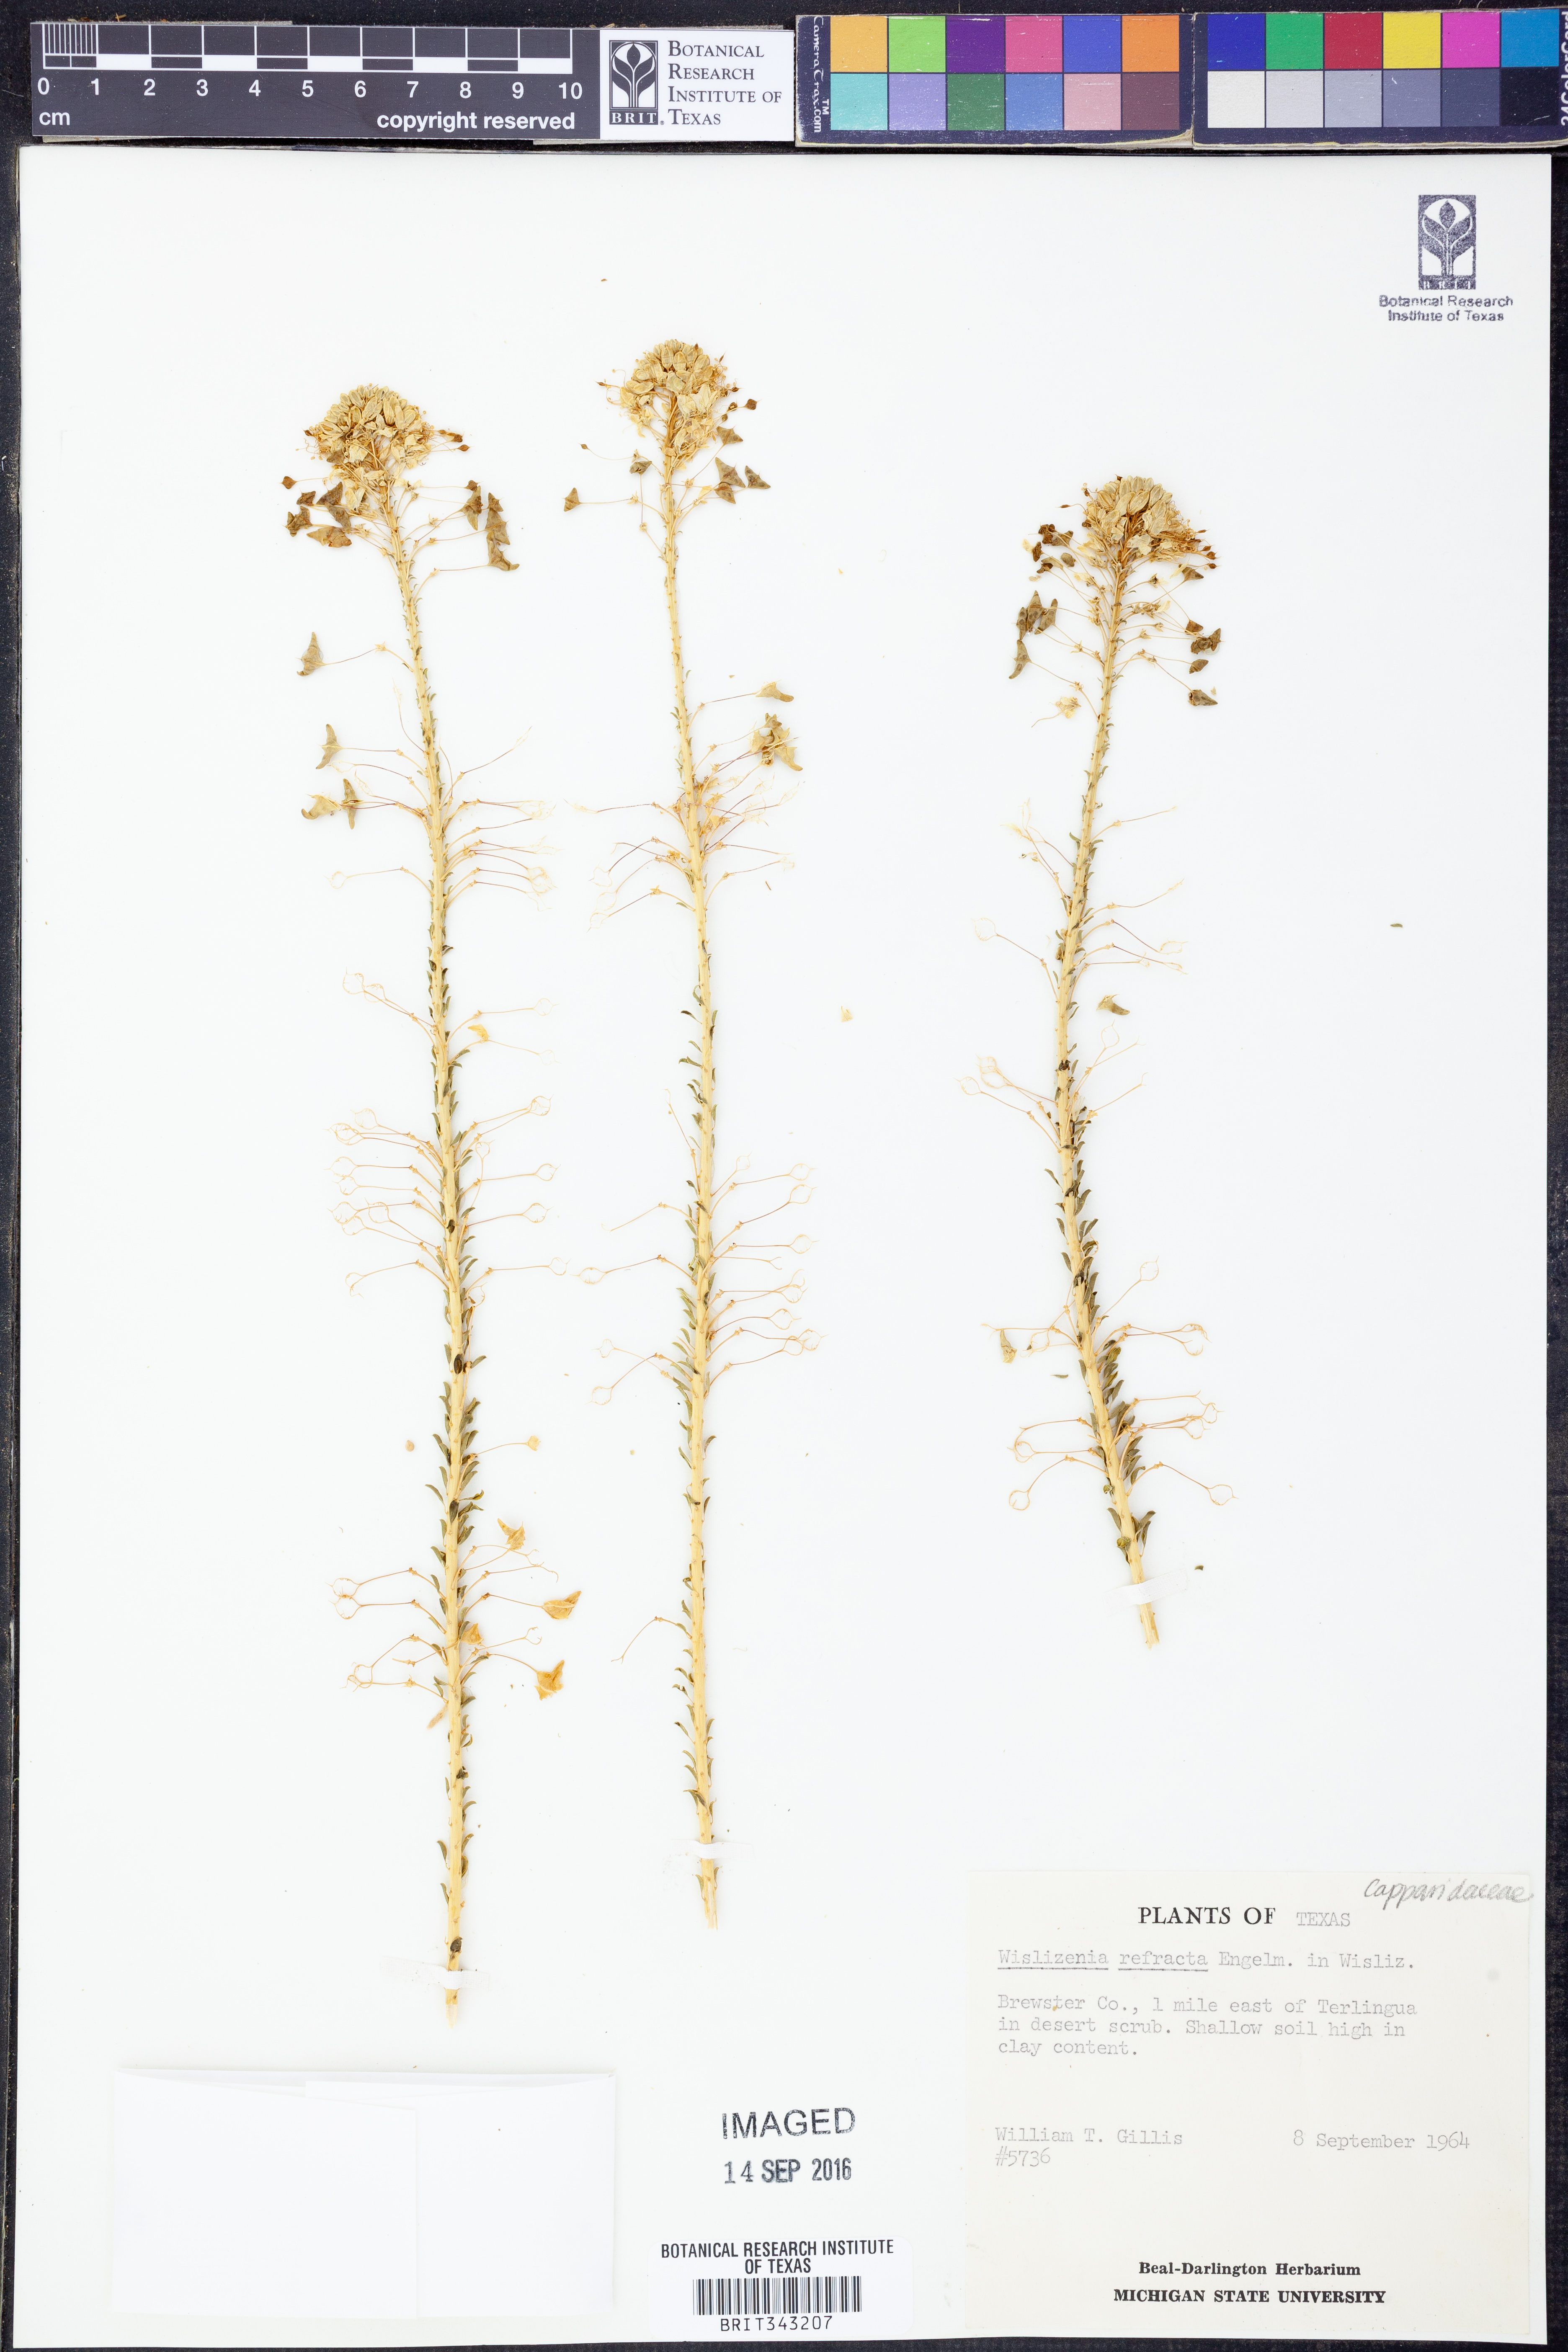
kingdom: Plantae
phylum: Tracheophyta
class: Magnoliopsida
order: Brassicales
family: Cleomaceae
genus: Cleomella
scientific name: Cleomella refracta
